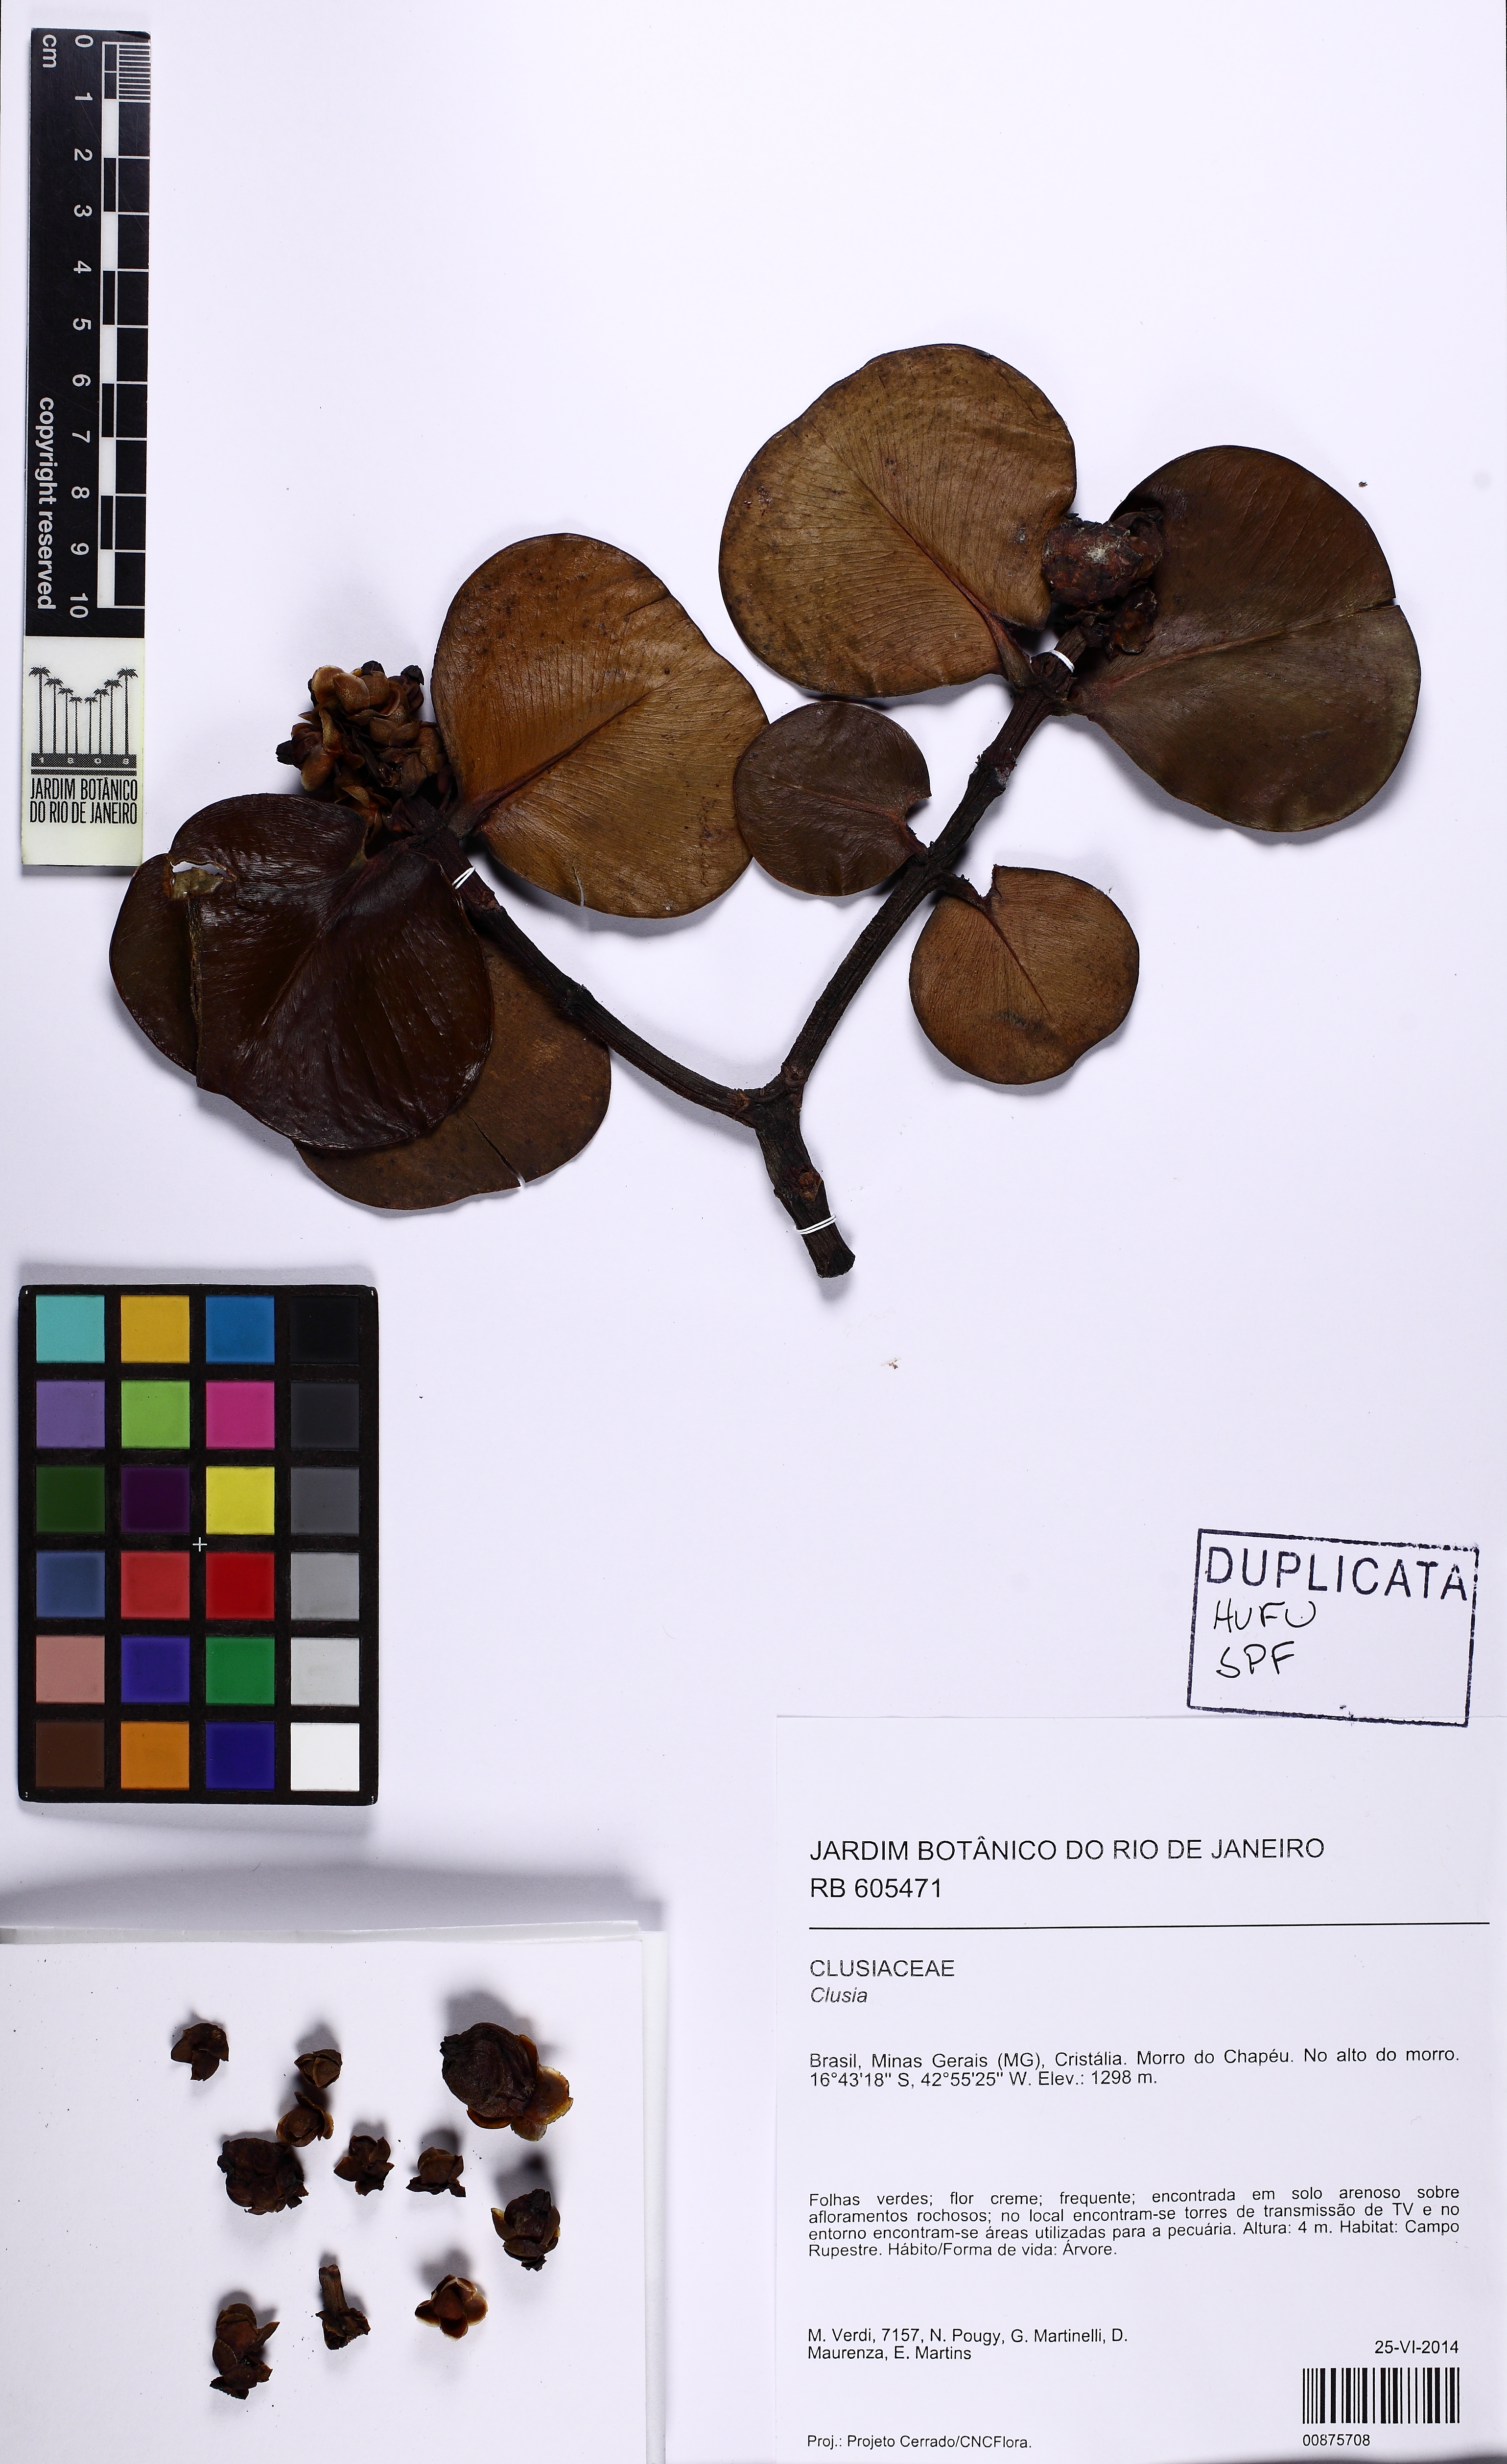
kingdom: Plantae
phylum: Tracheophyta
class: Magnoliopsida
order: Malpighiales
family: Clusiaceae
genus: Clusia
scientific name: Clusia
